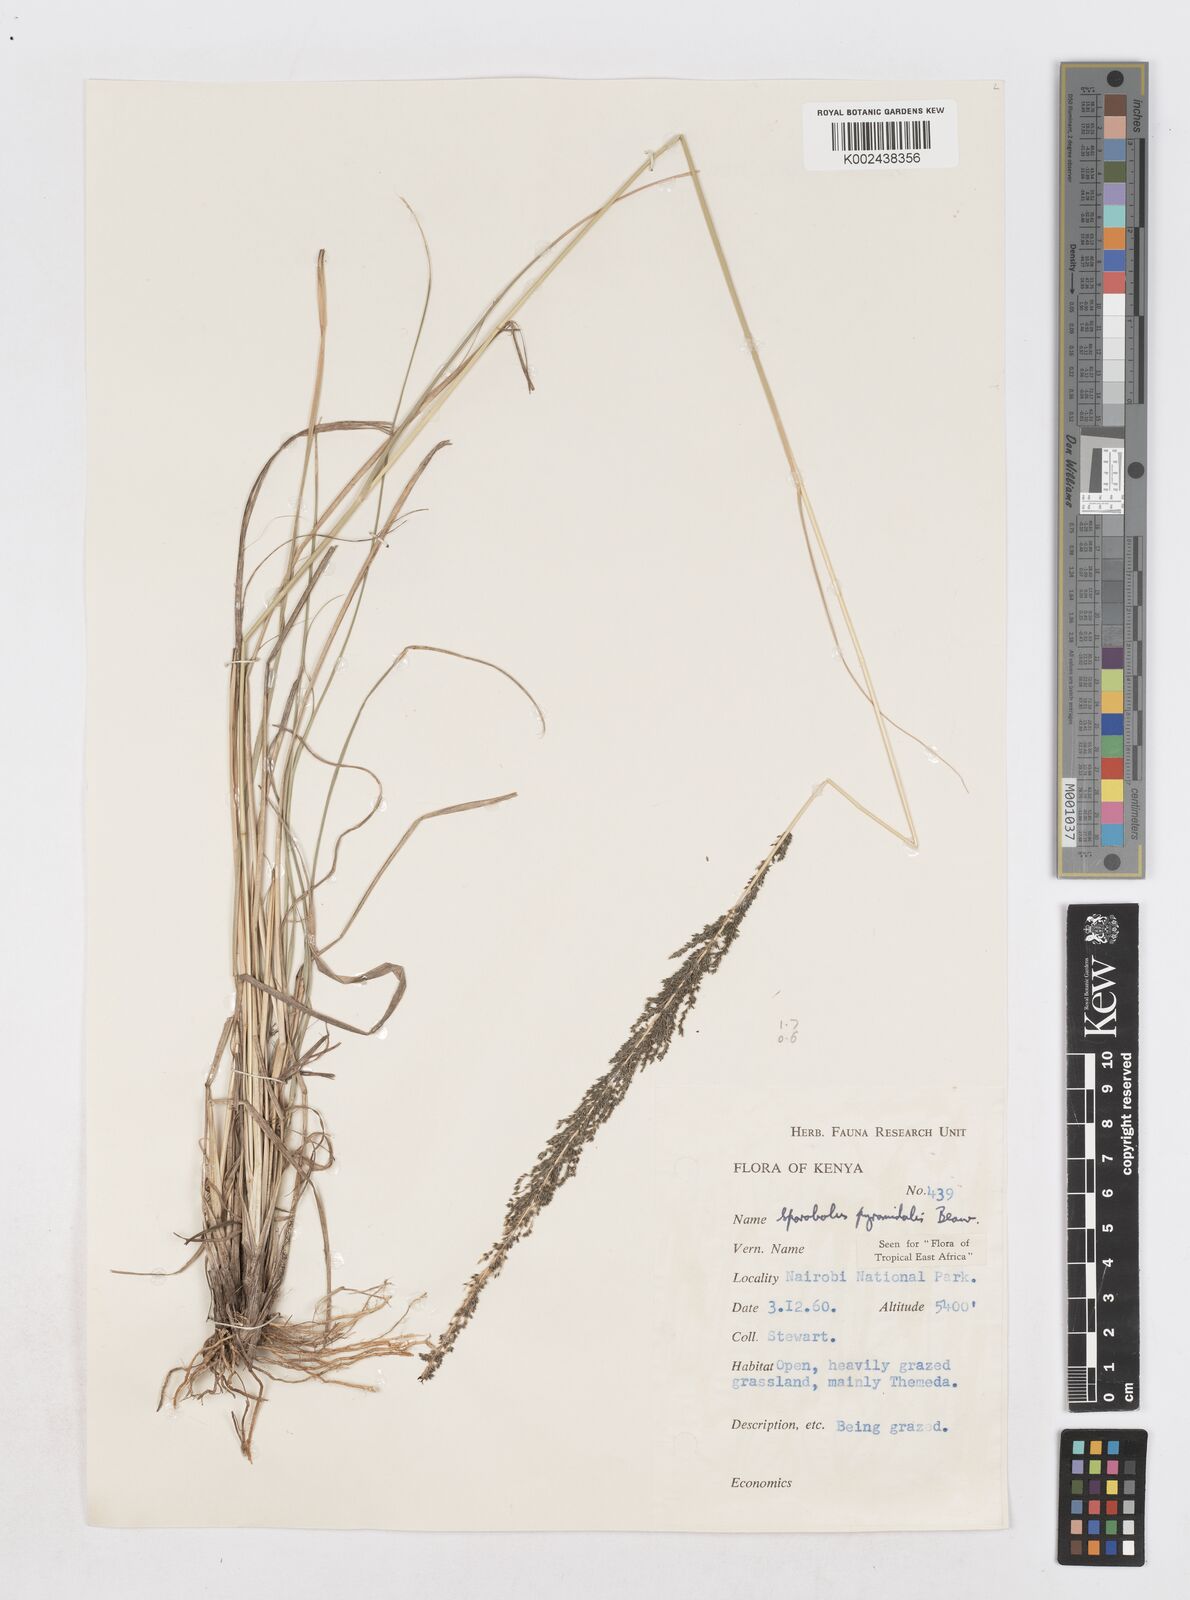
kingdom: Plantae
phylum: Tracheophyta
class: Liliopsida
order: Poales
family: Poaceae
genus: Sporobolus
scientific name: Sporobolus pyramidalis
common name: West indian dropseed
